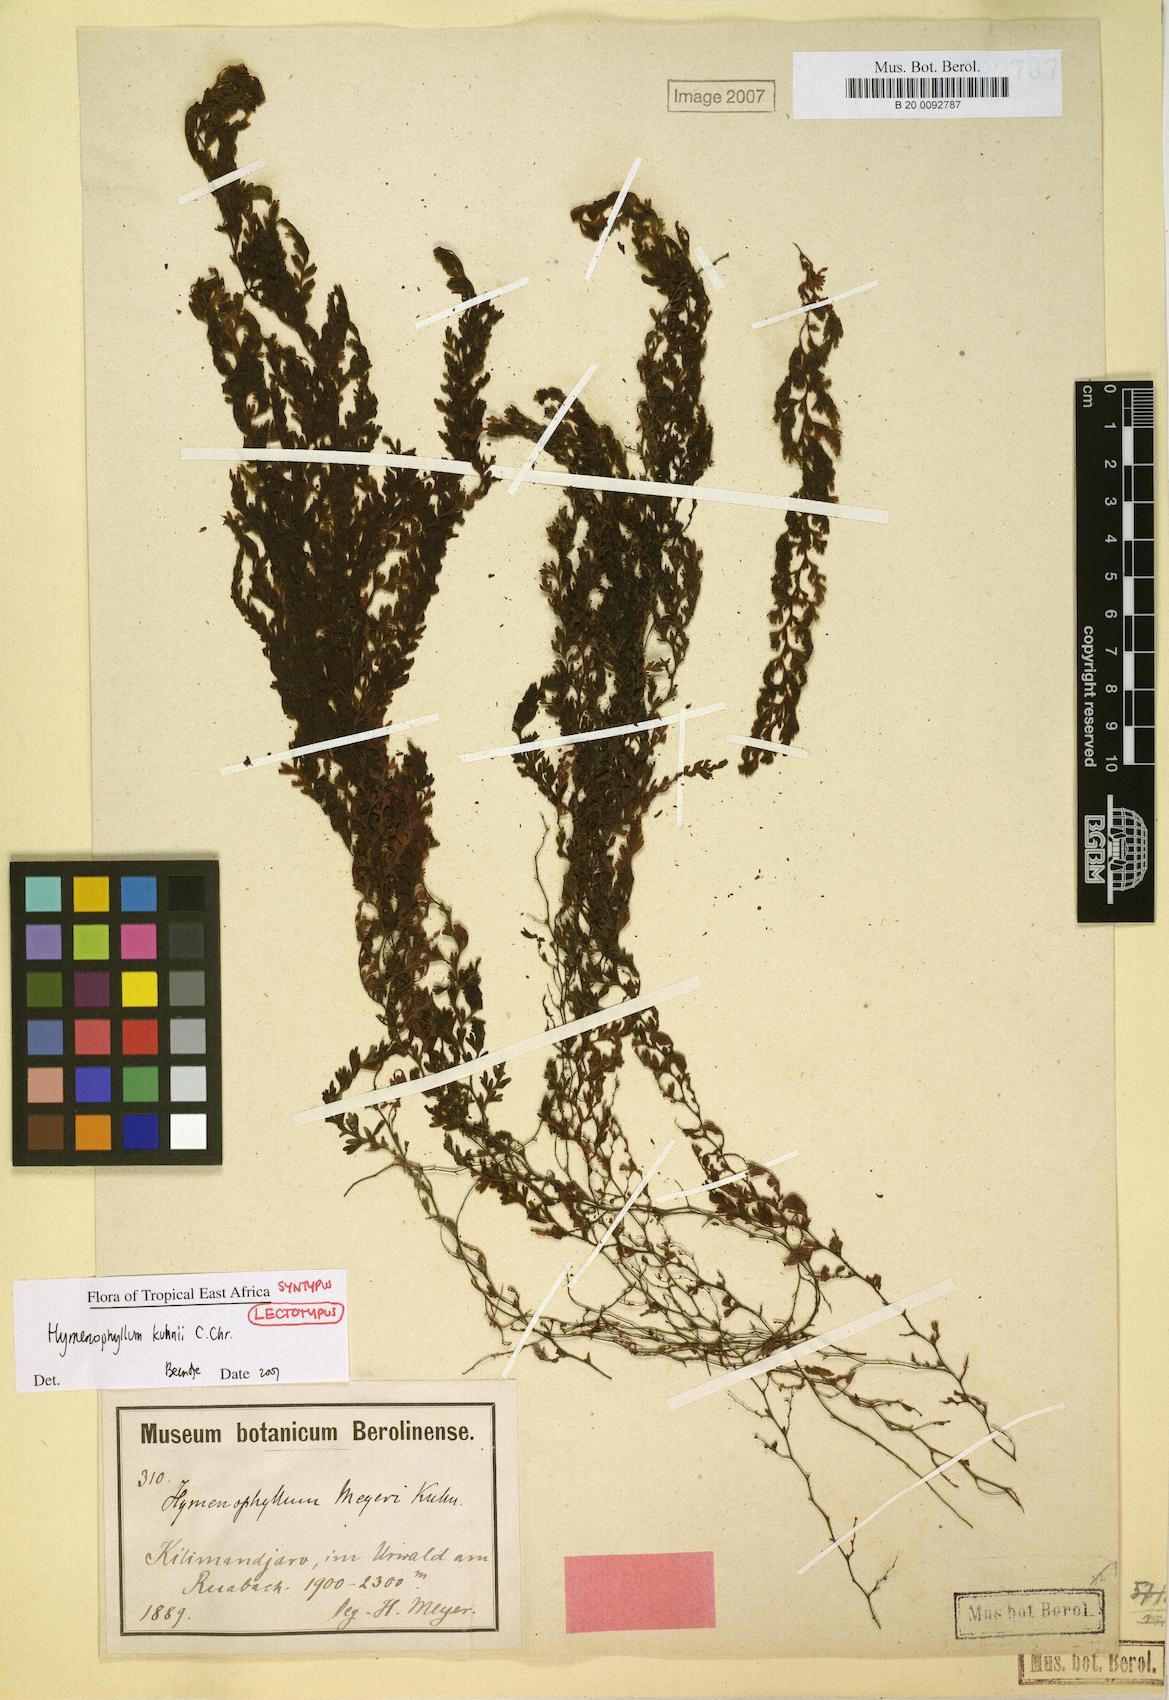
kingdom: Plantae
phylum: Tracheophyta
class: Polypodiopsida
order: Hymenophyllales
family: Hymenophyllaceae
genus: Hymenophyllum
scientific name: Hymenophyllum kuhnii
